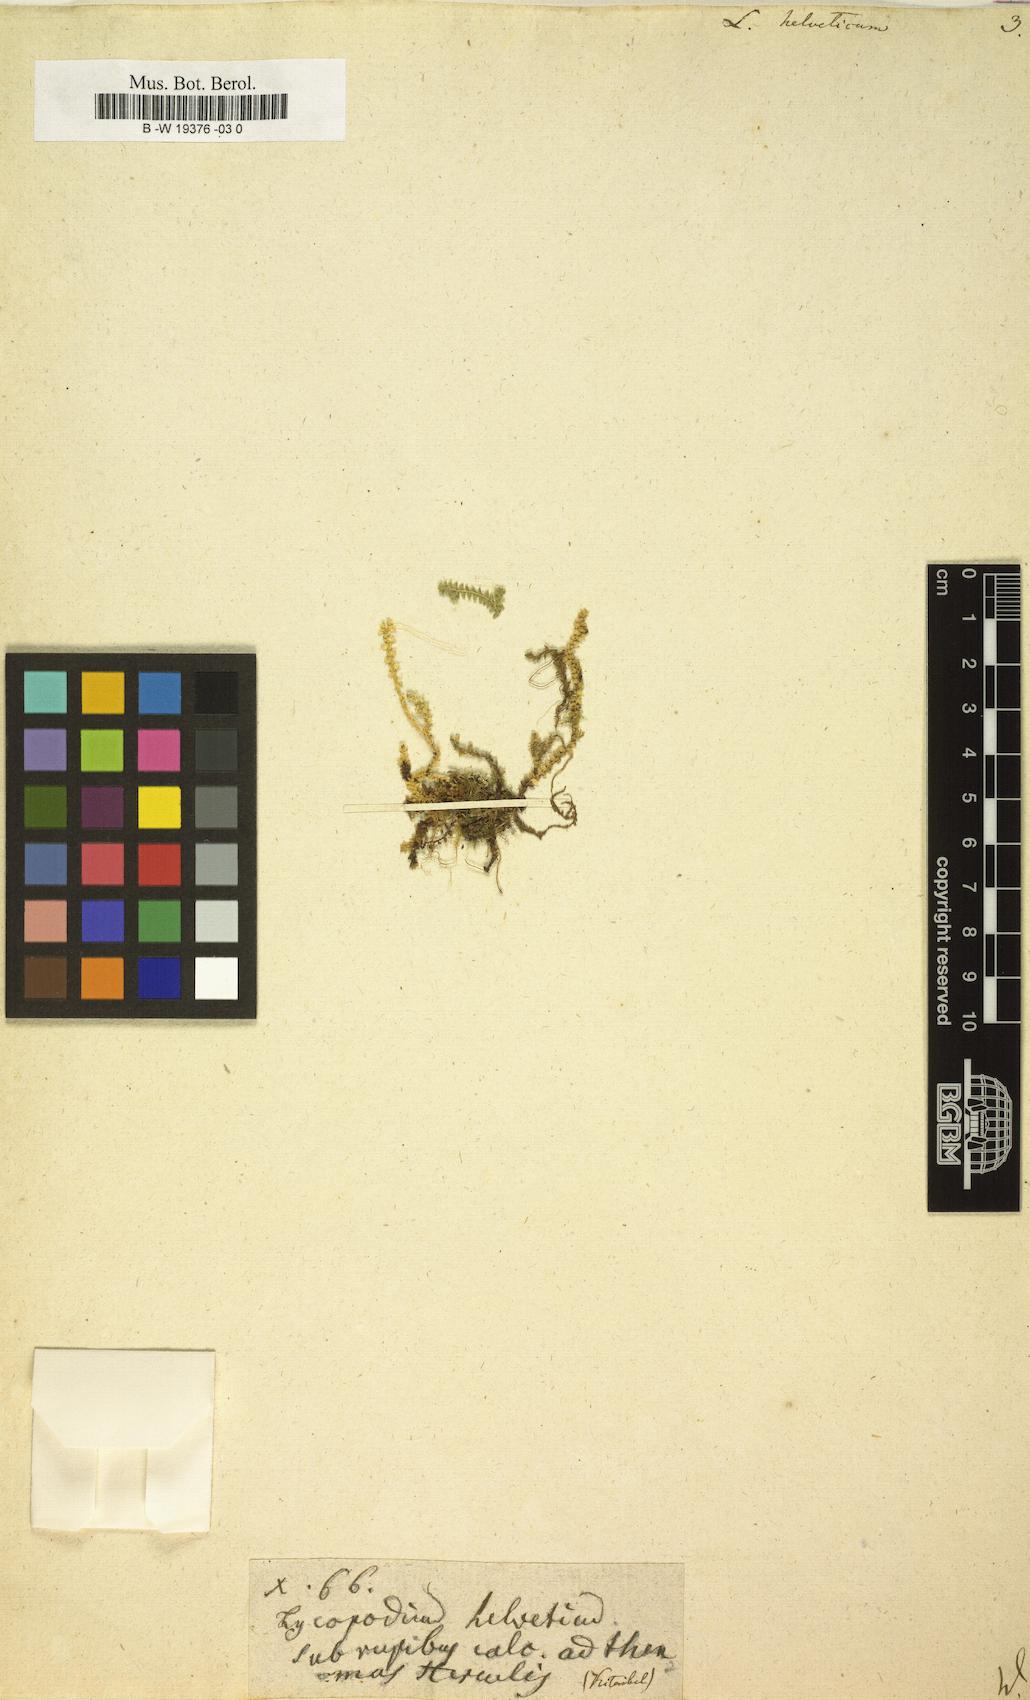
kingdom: Plantae
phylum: Tracheophyta
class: Lycopodiopsida
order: Selaginellales
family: Selaginellaceae
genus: Selaginella
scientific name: Selaginella helvetica
